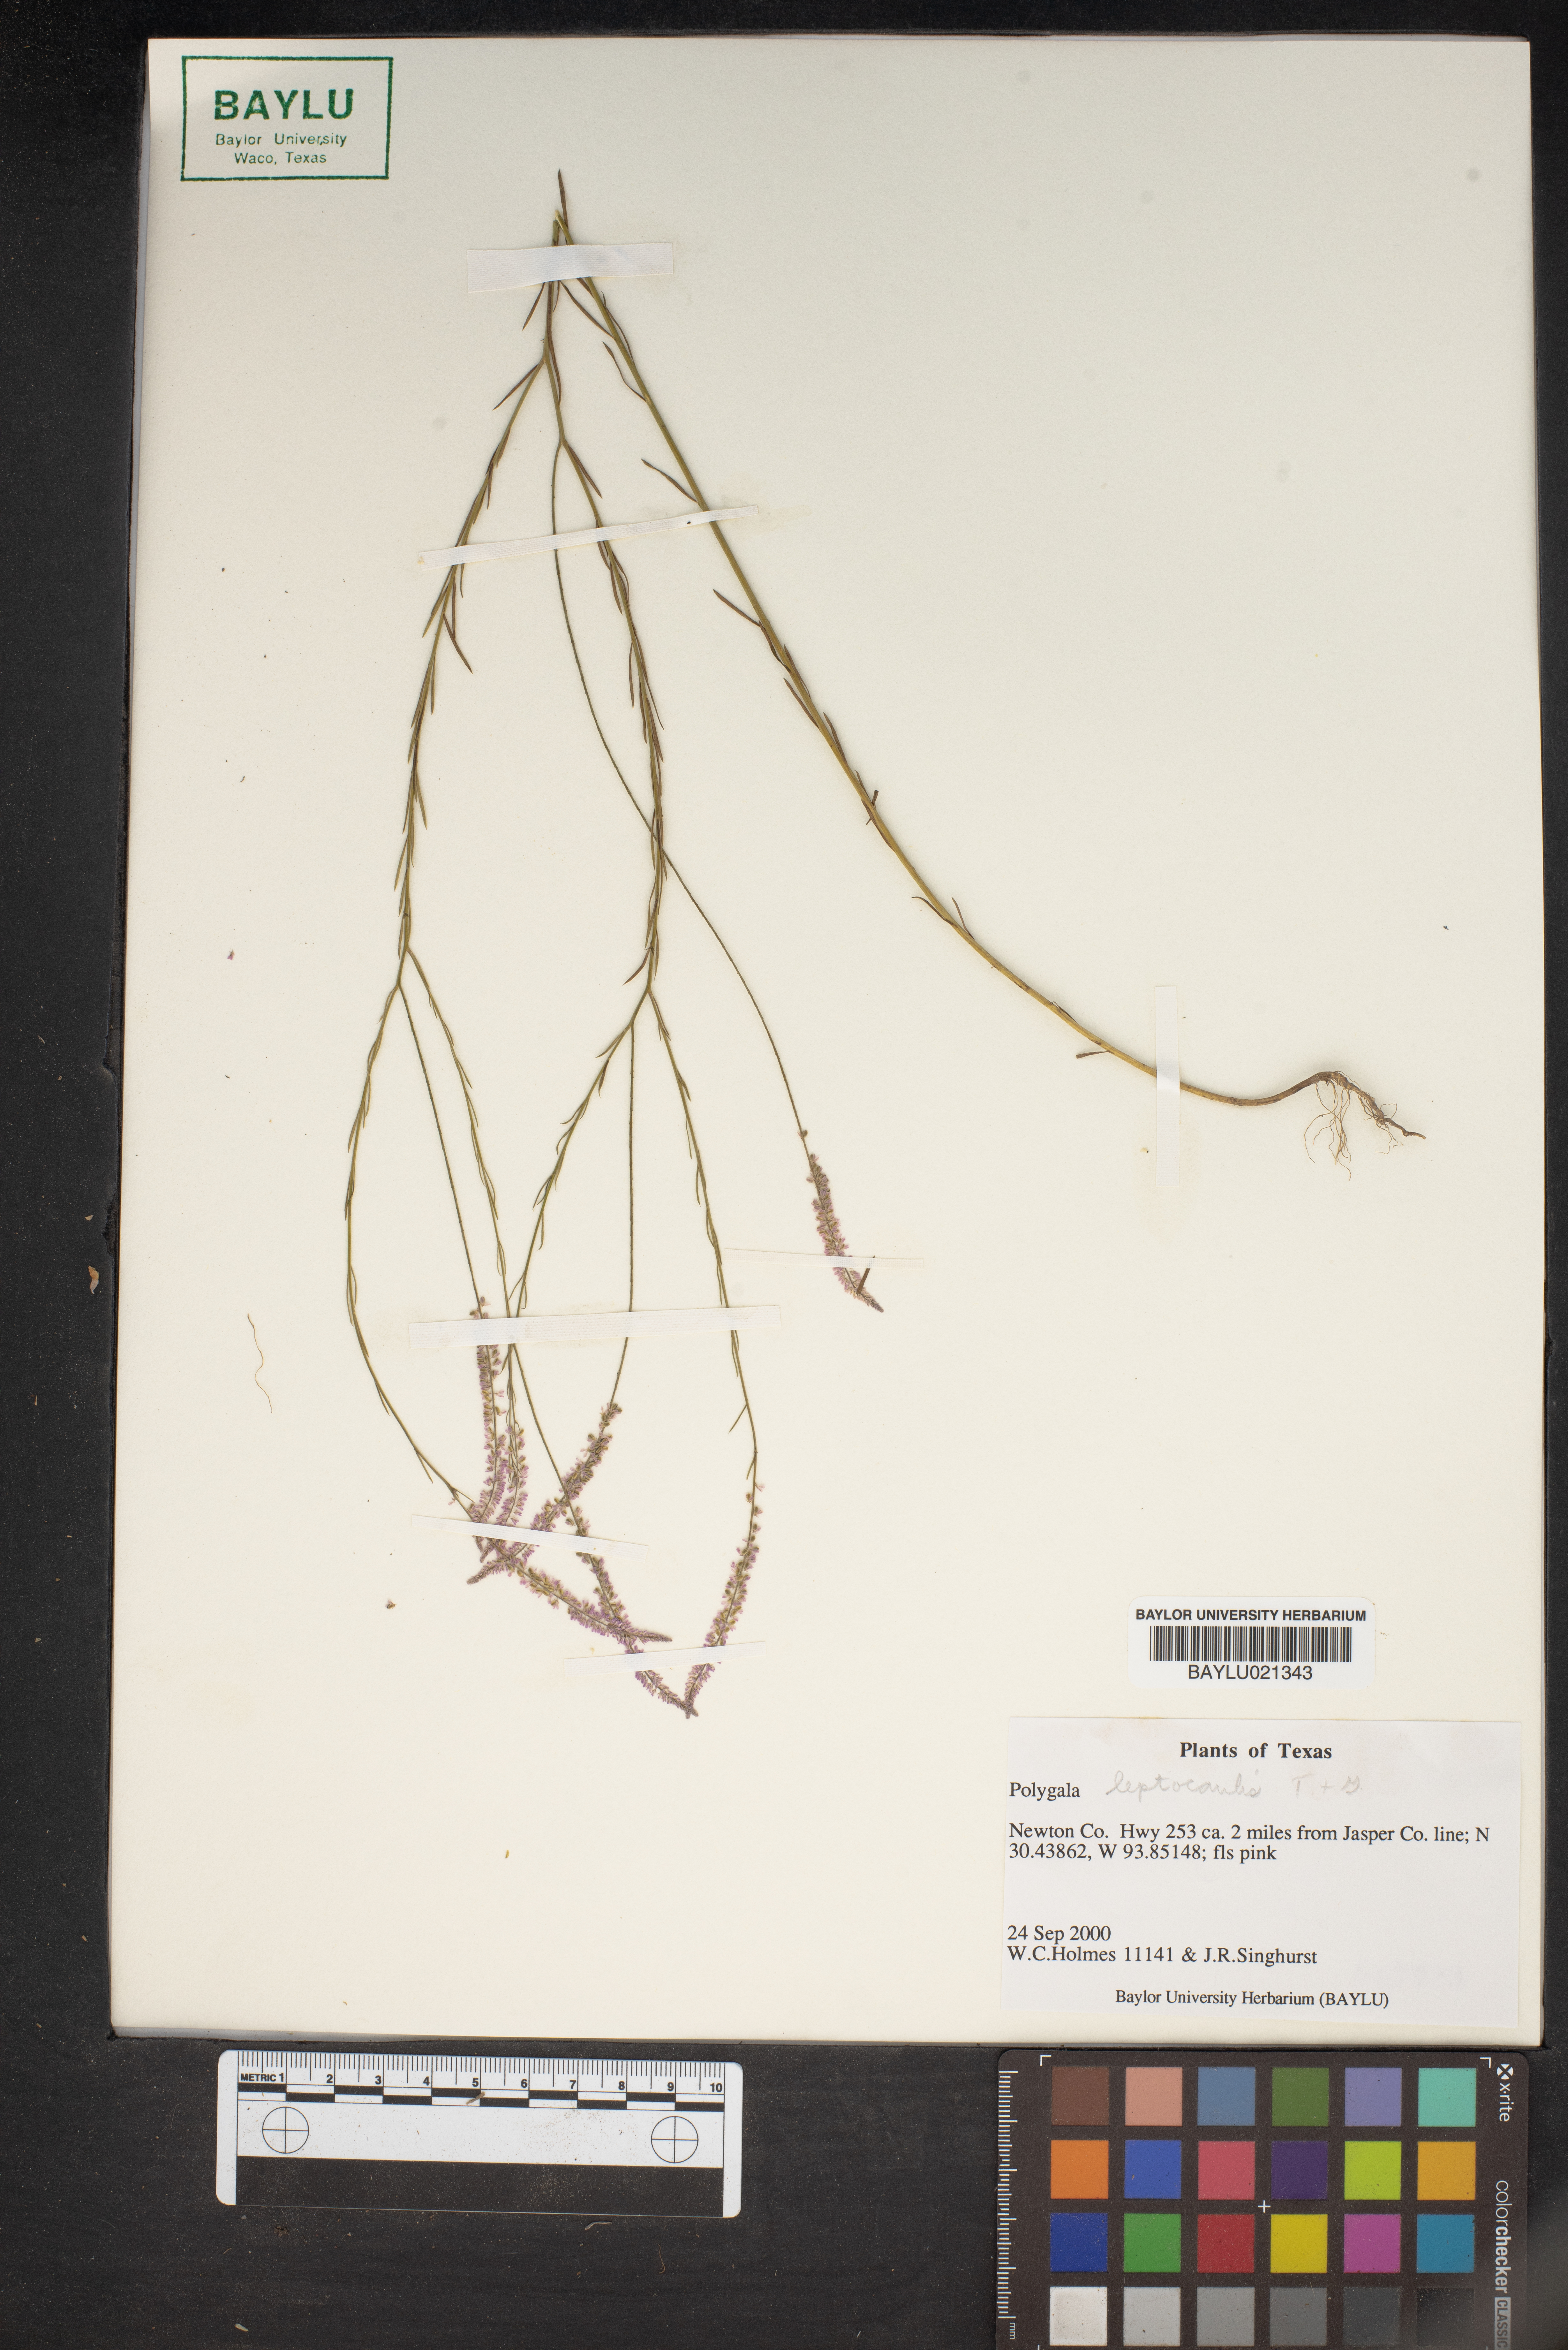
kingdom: Plantae
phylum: Tracheophyta
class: Magnoliopsida
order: Fabales
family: Polygalaceae
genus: Polygala
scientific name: Polygala tenella
